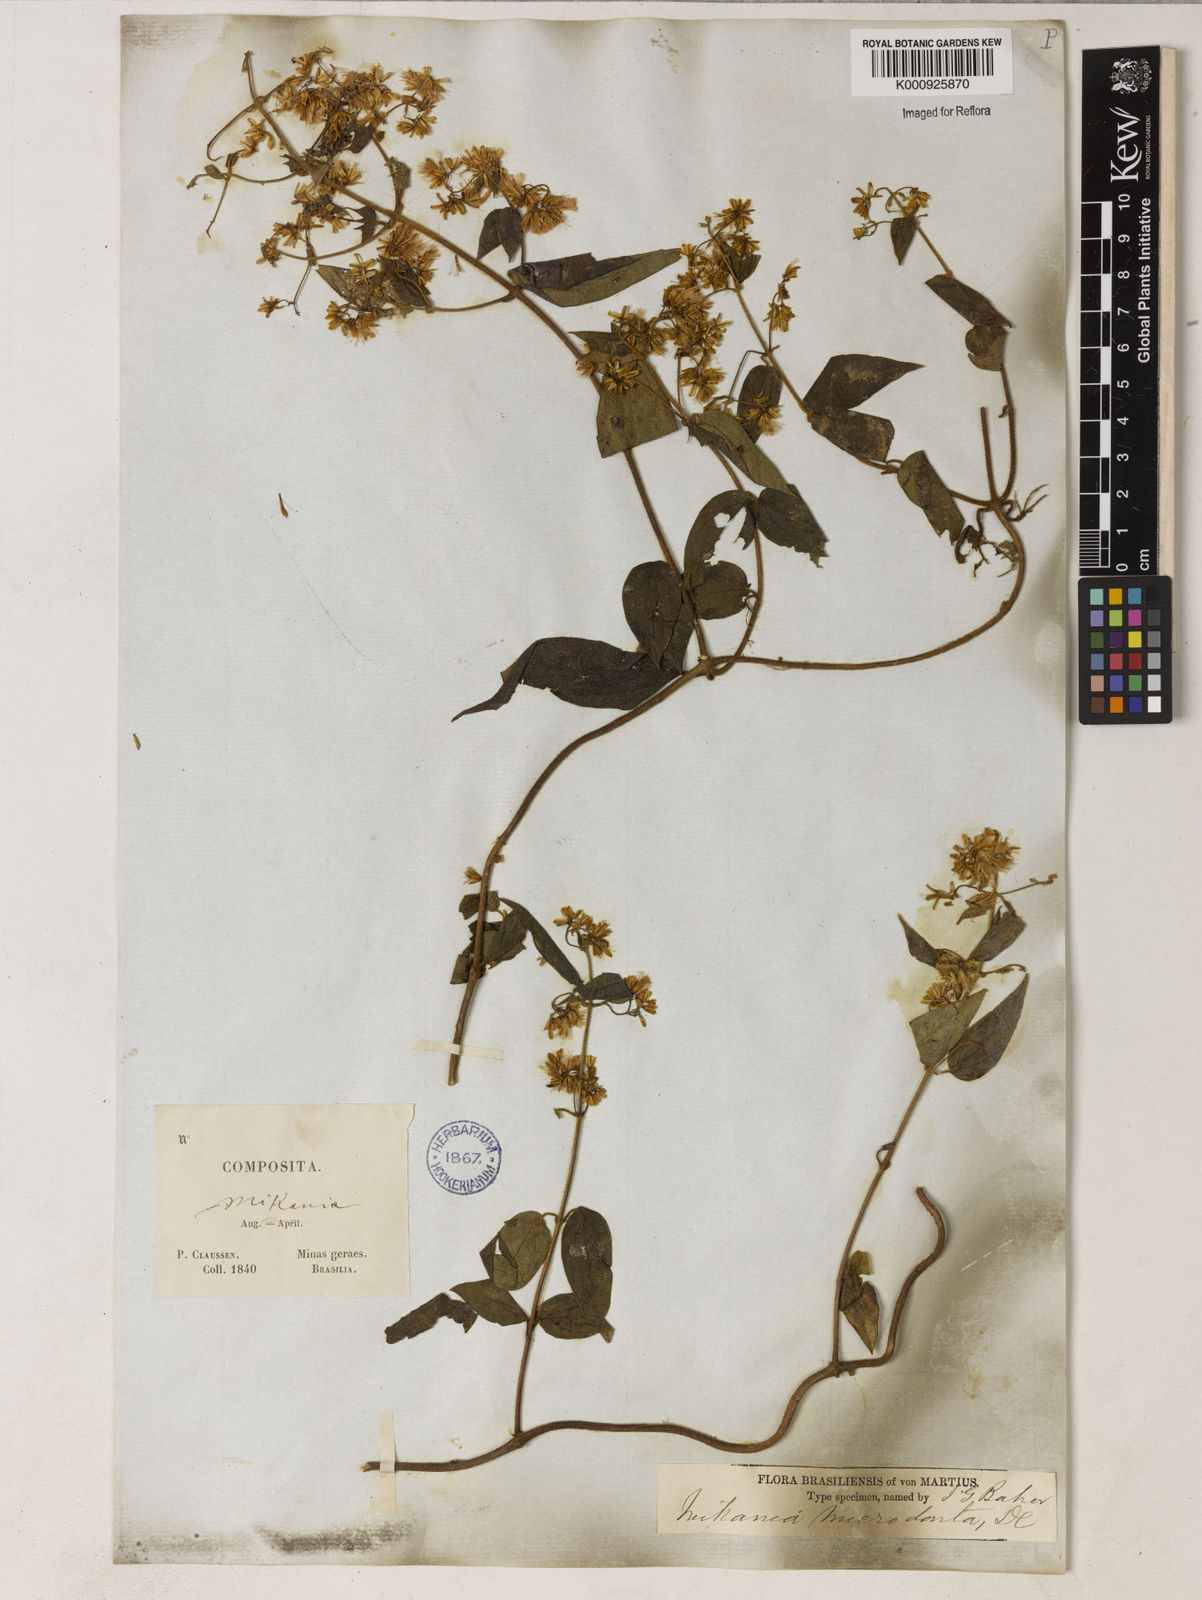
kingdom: Plantae
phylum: Tracheophyta
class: Magnoliopsida
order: Asterales
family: Asteraceae
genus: Mikania
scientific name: Mikania microdonta
